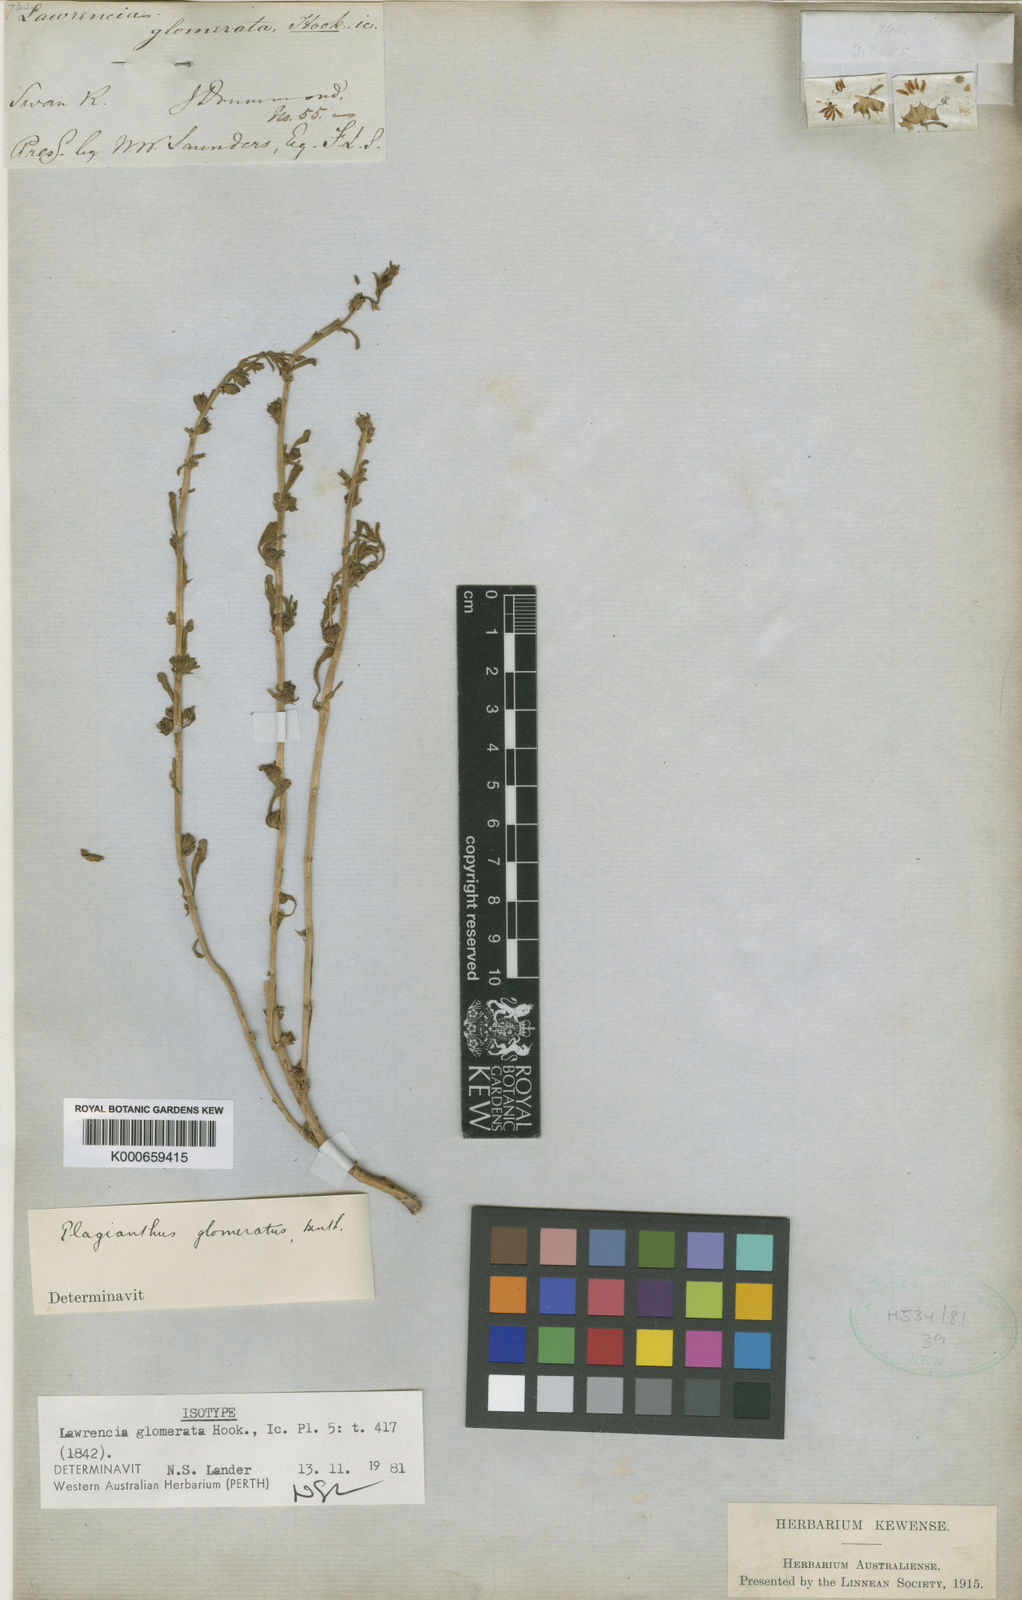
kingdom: Plantae
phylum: Tracheophyta
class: Magnoliopsida
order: Malvales
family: Malvaceae
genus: Lawrencia
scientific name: Lawrencia glomerata
